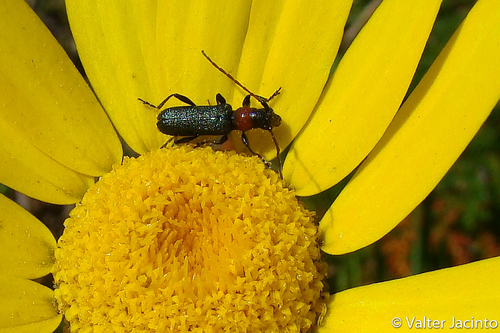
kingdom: Animalia
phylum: Arthropoda
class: Insecta
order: Coleoptera
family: Cerambycidae
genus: Certallum
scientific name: Certallum ebulinum
